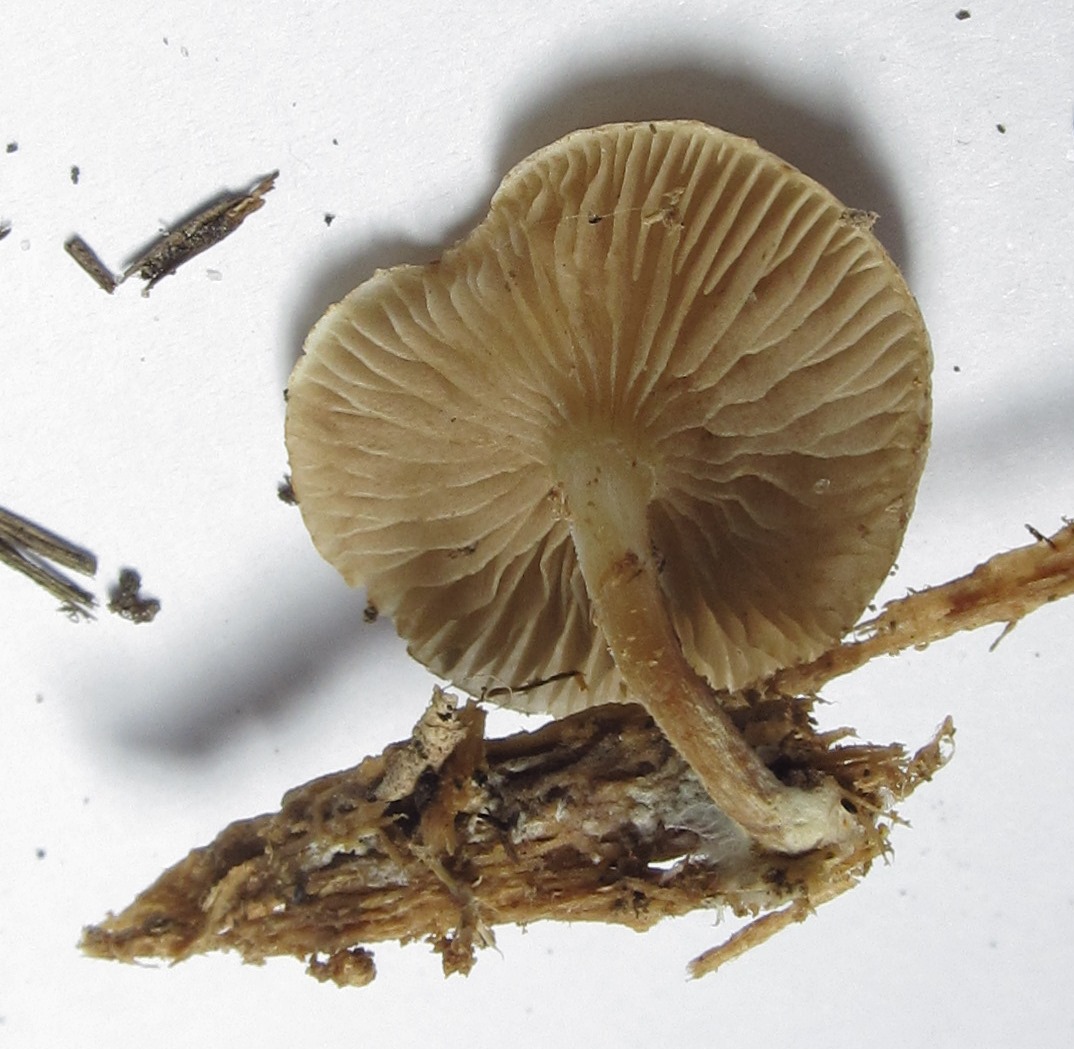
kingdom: Fungi
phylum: Basidiomycota
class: Agaricomycetes
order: Agaricales
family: Strophariaceae
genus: Pholiota
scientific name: Pholiota scamba
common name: dværg-skælhat
